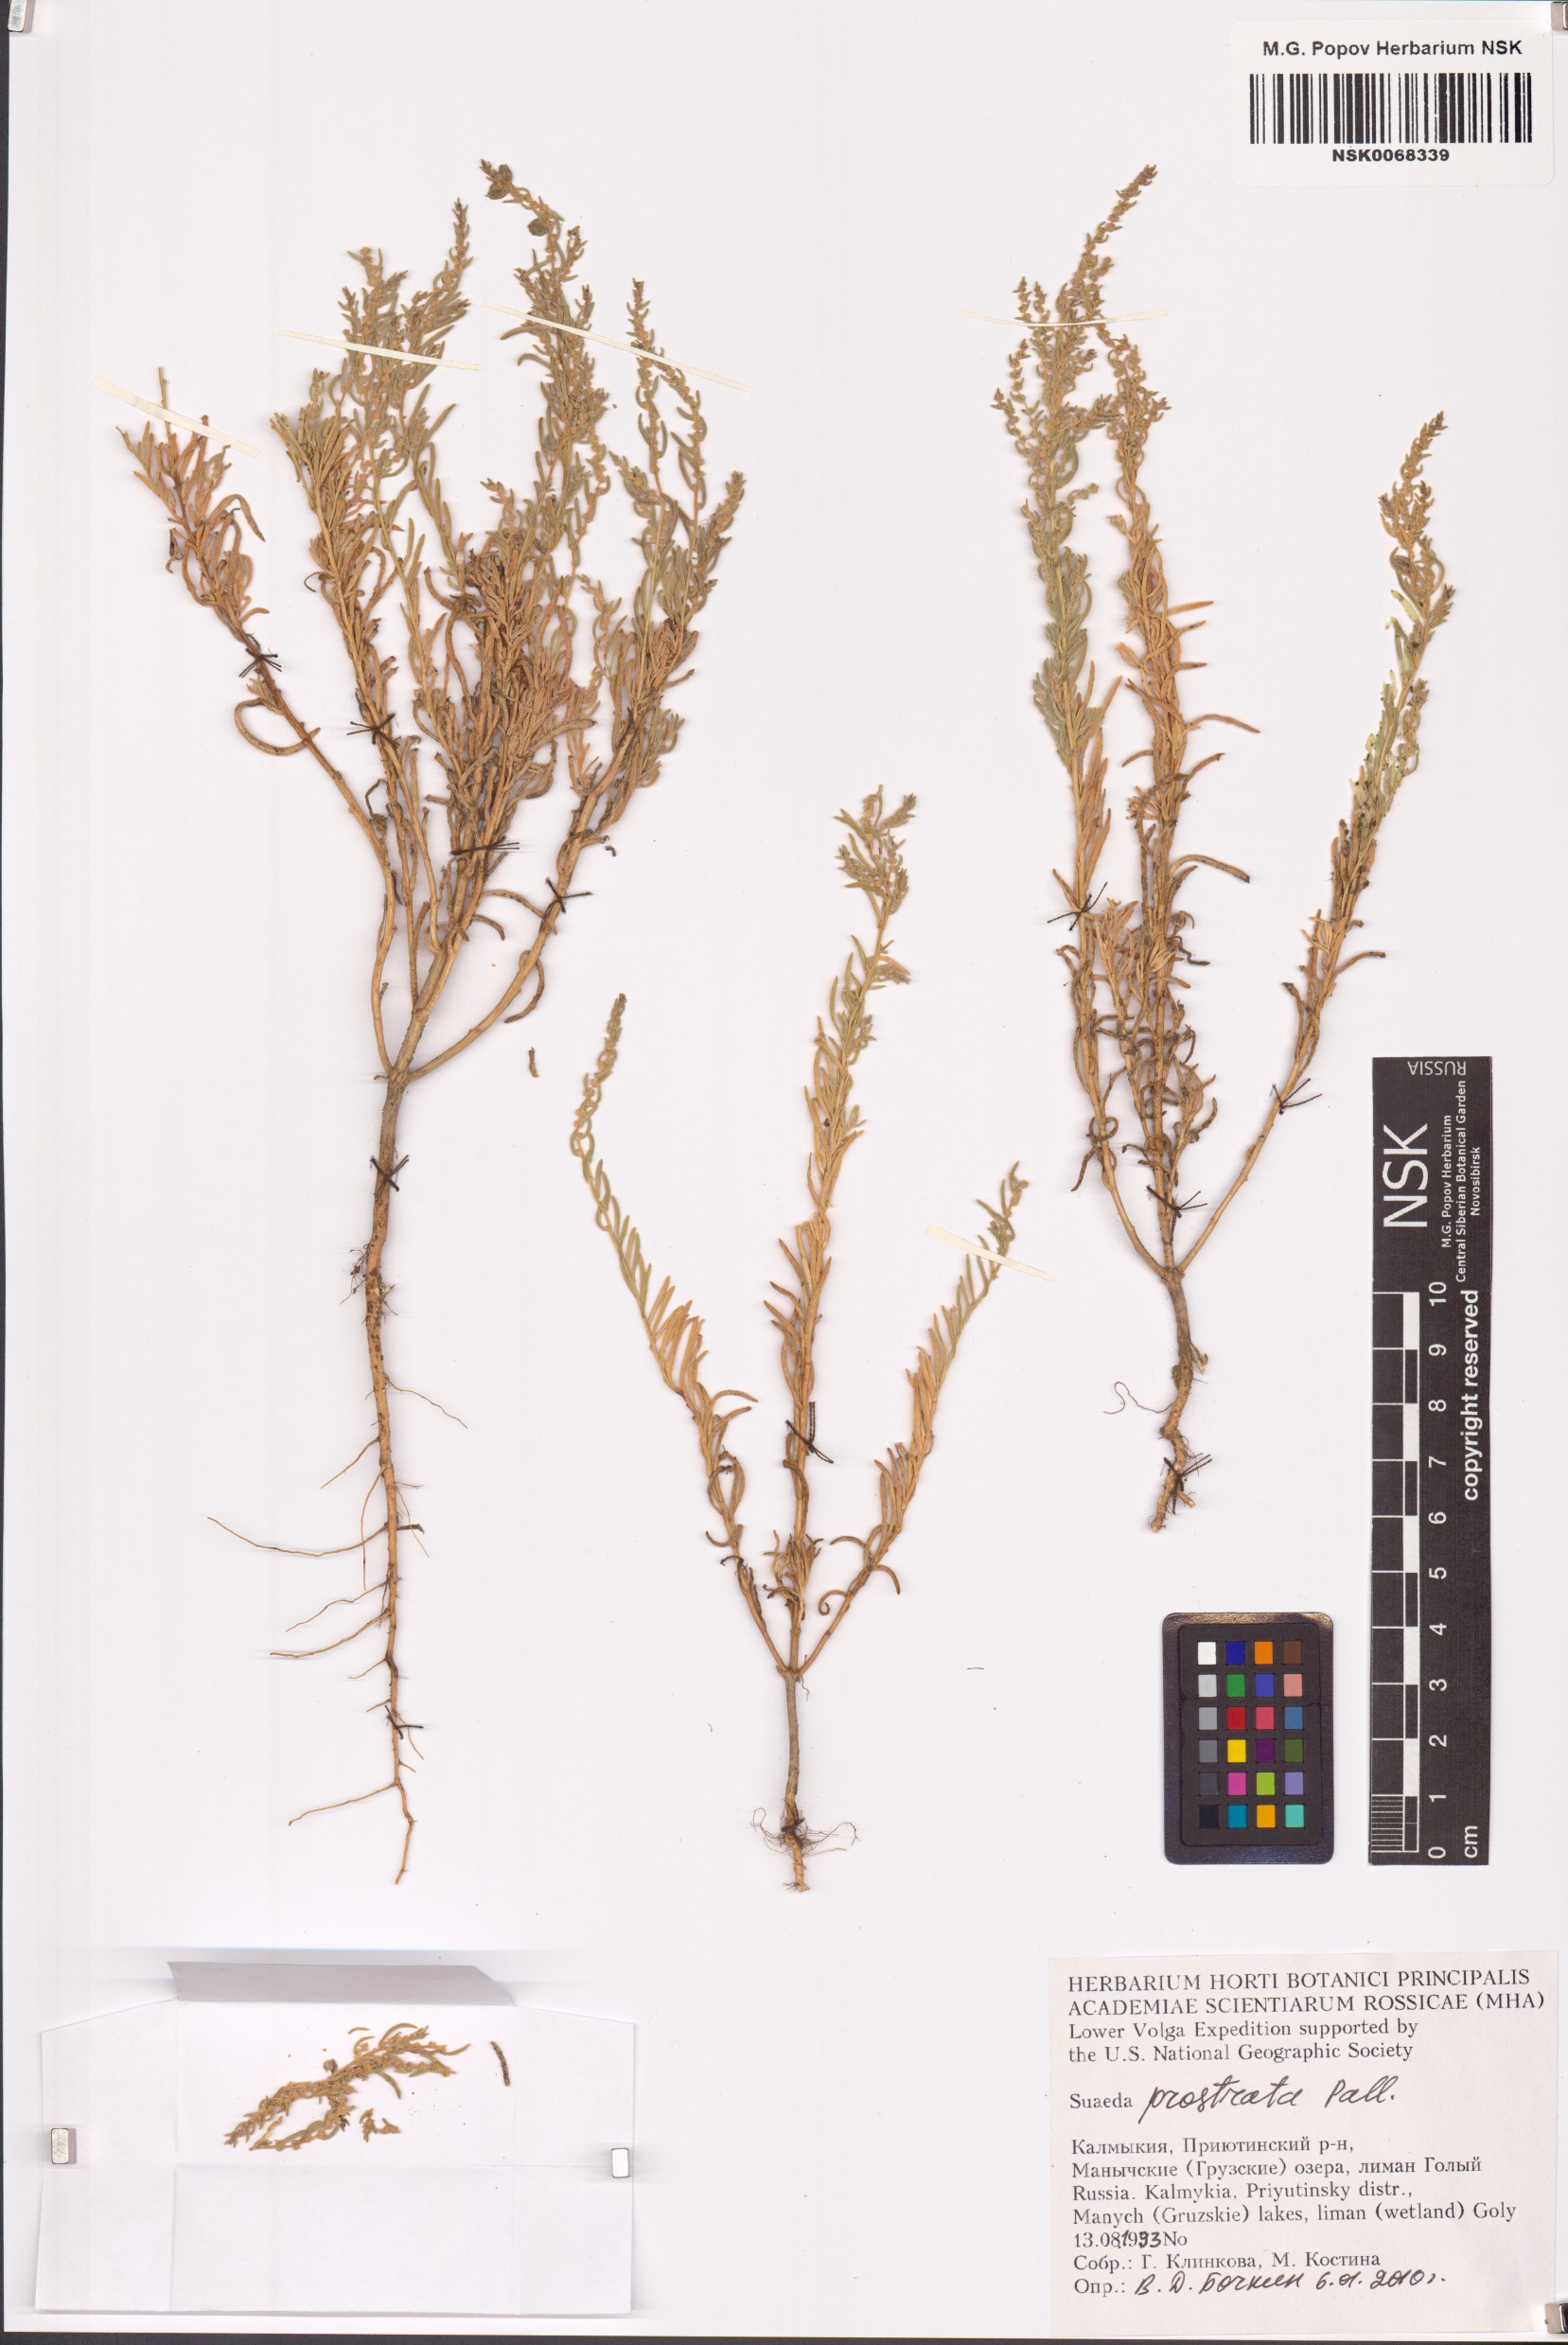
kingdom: Plantae
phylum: Tracheophyta
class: Magnoliopsida
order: Caryophyllales
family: Amaranthaceae
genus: Suaeda
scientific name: Suaeda prostrata
